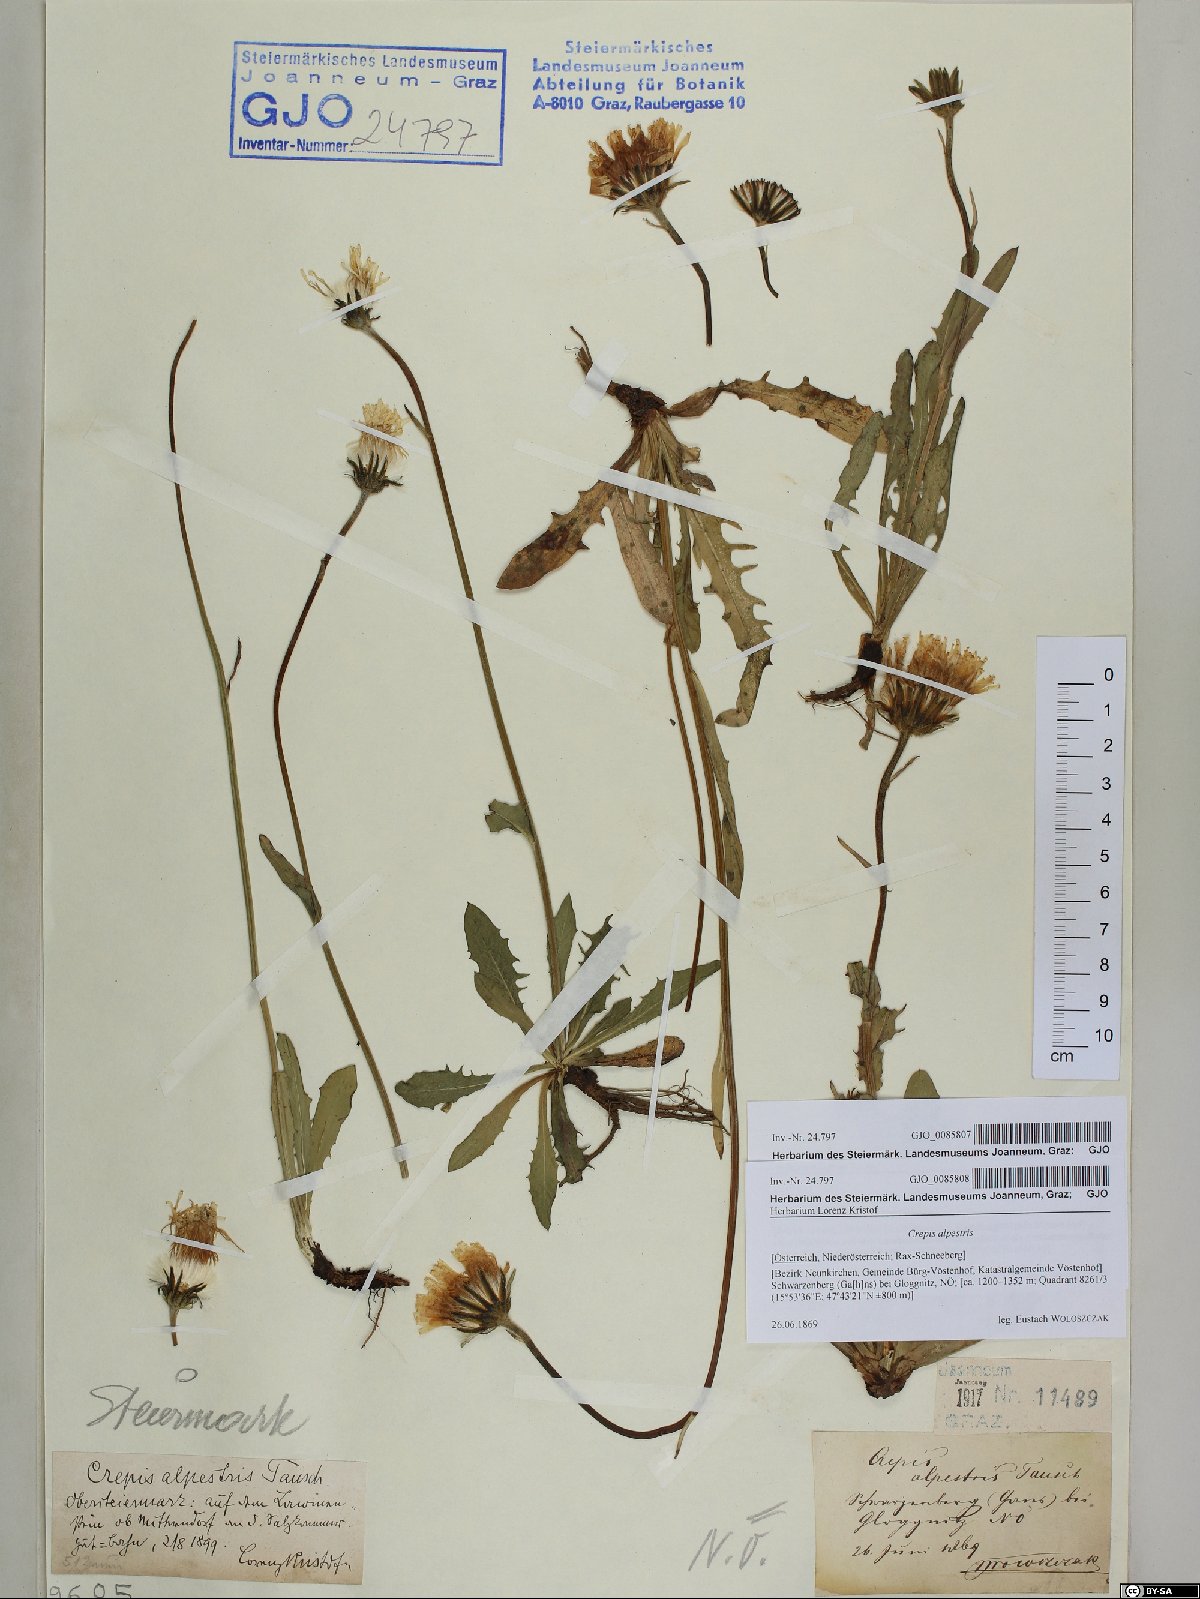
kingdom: Plantae
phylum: Tracheophyta
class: Magnoliopsida
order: Asterales
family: Asteraceae
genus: Crepis
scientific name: Crepis alpestris
